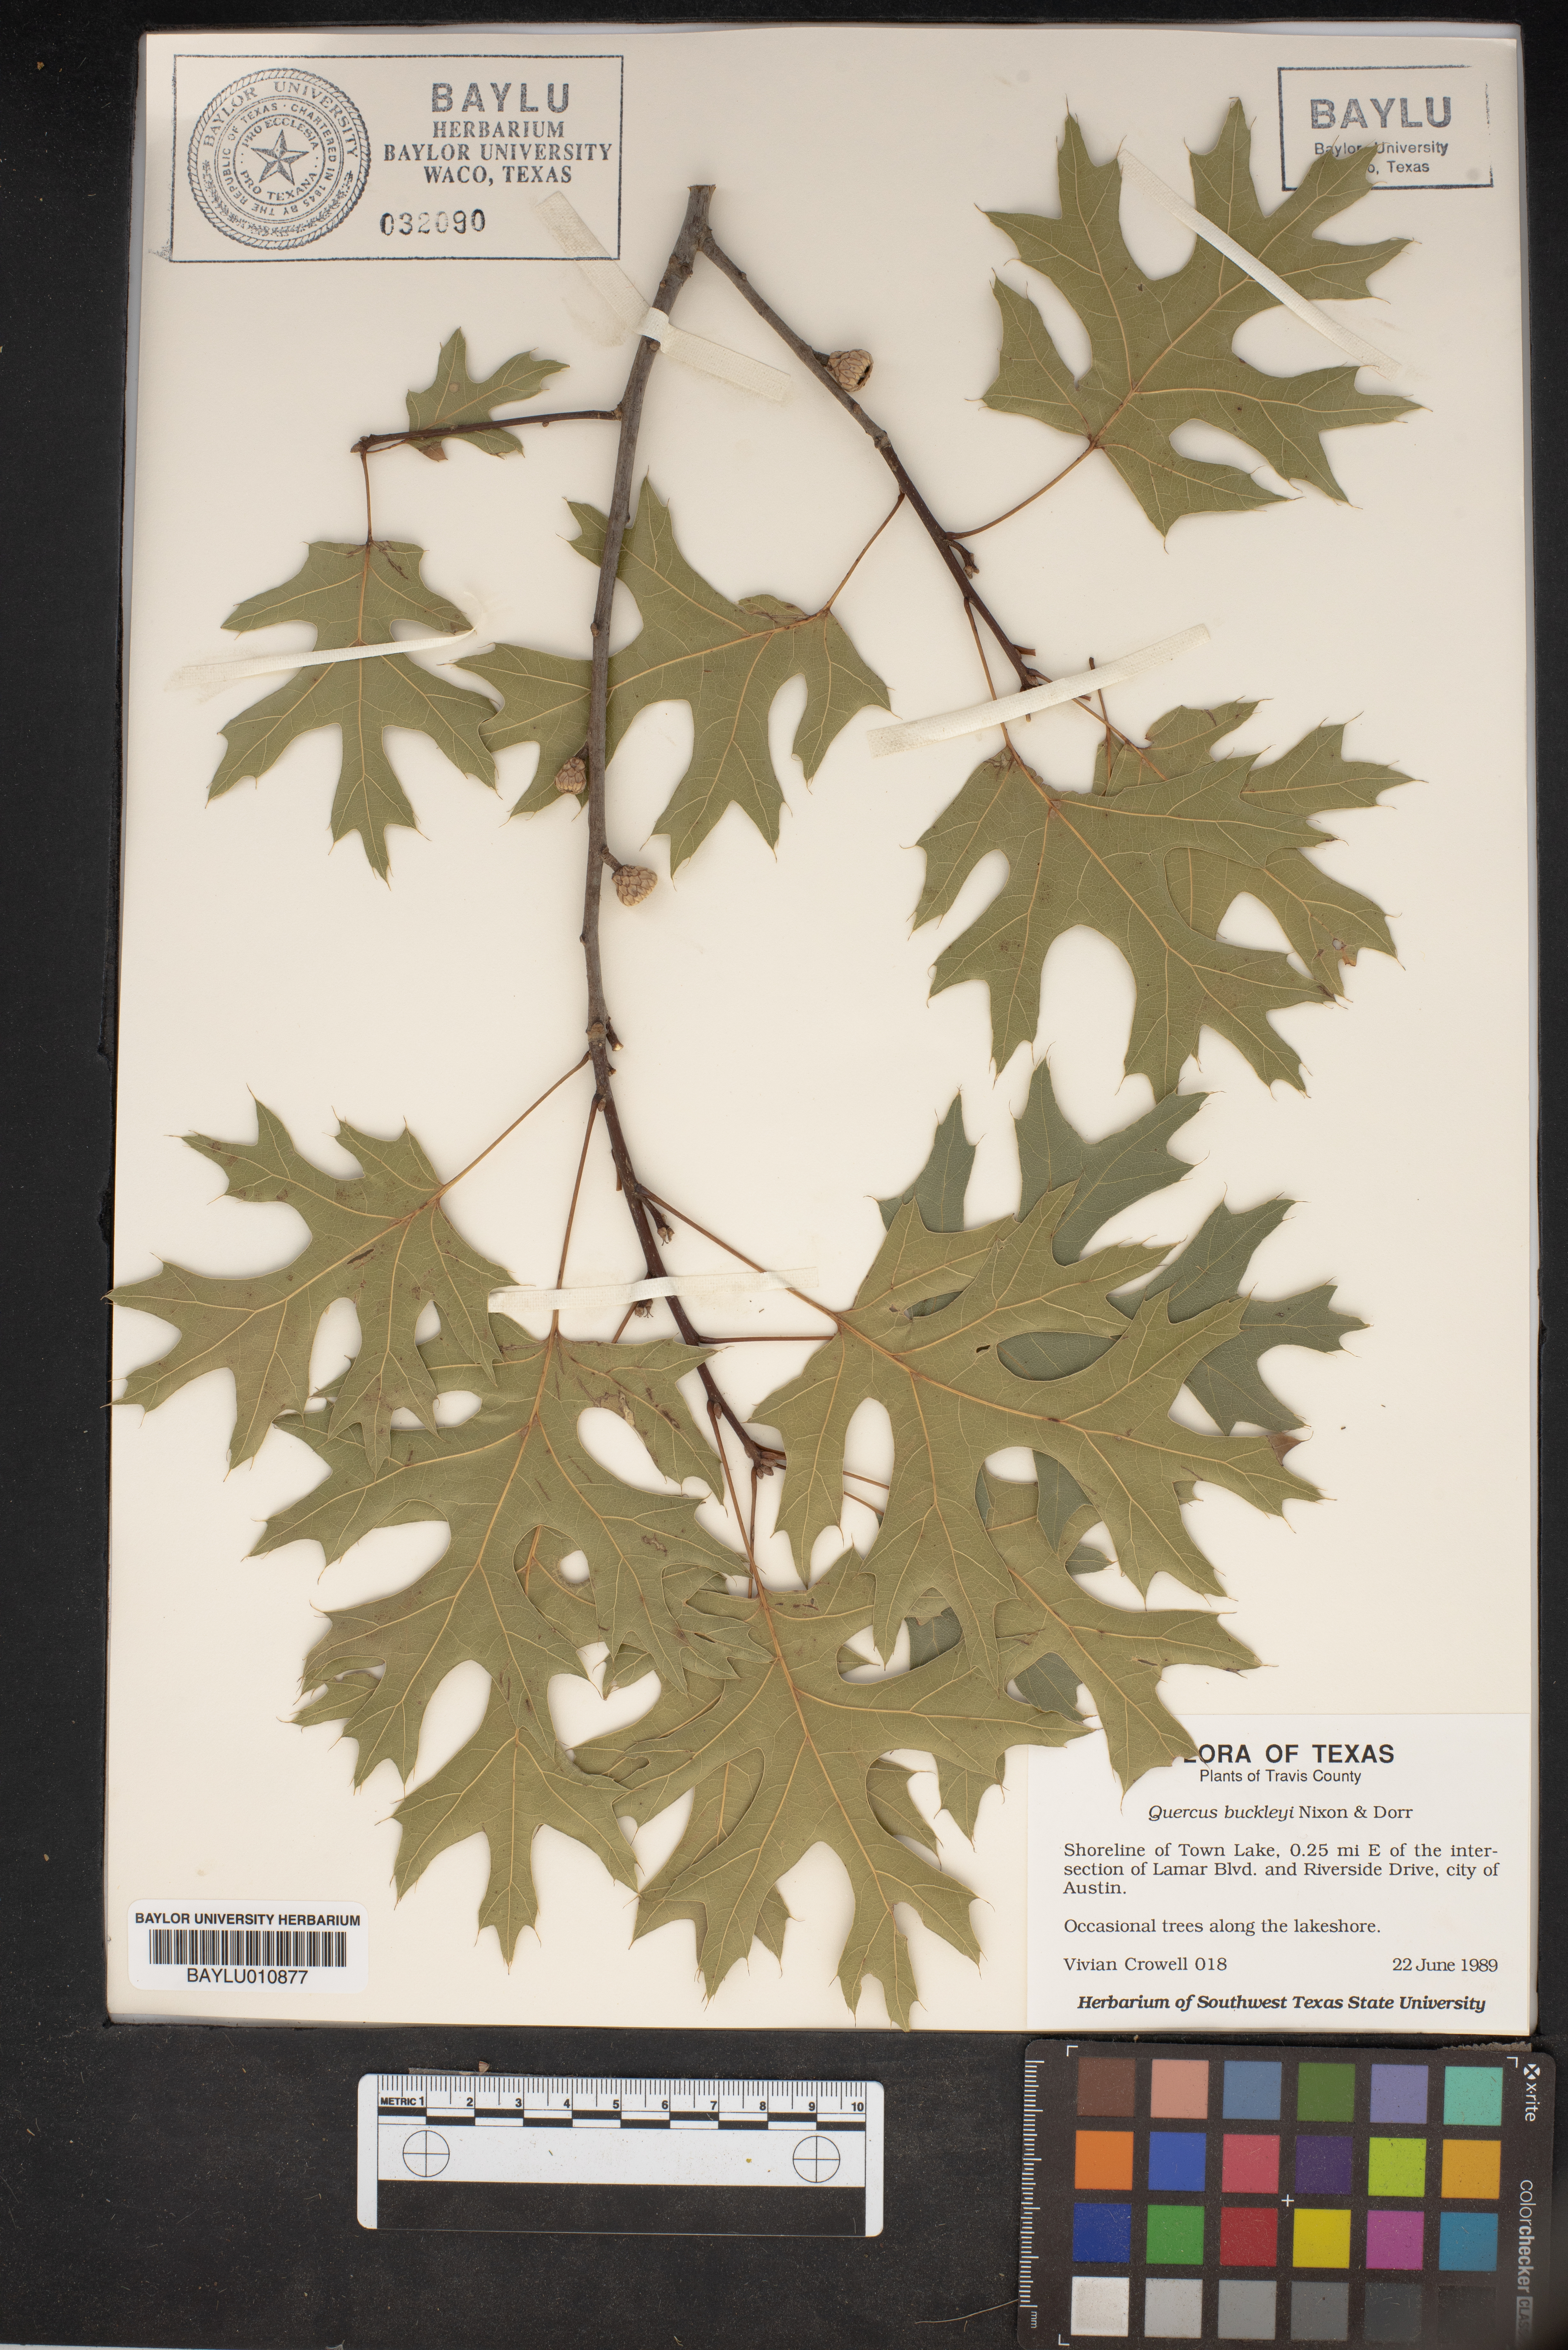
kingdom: Plantae
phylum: Tracheophyta
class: Magnoliopsida
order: Fagales
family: Fagaceae
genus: Quercus
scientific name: Quercus buckleyi
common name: Buckley oak
